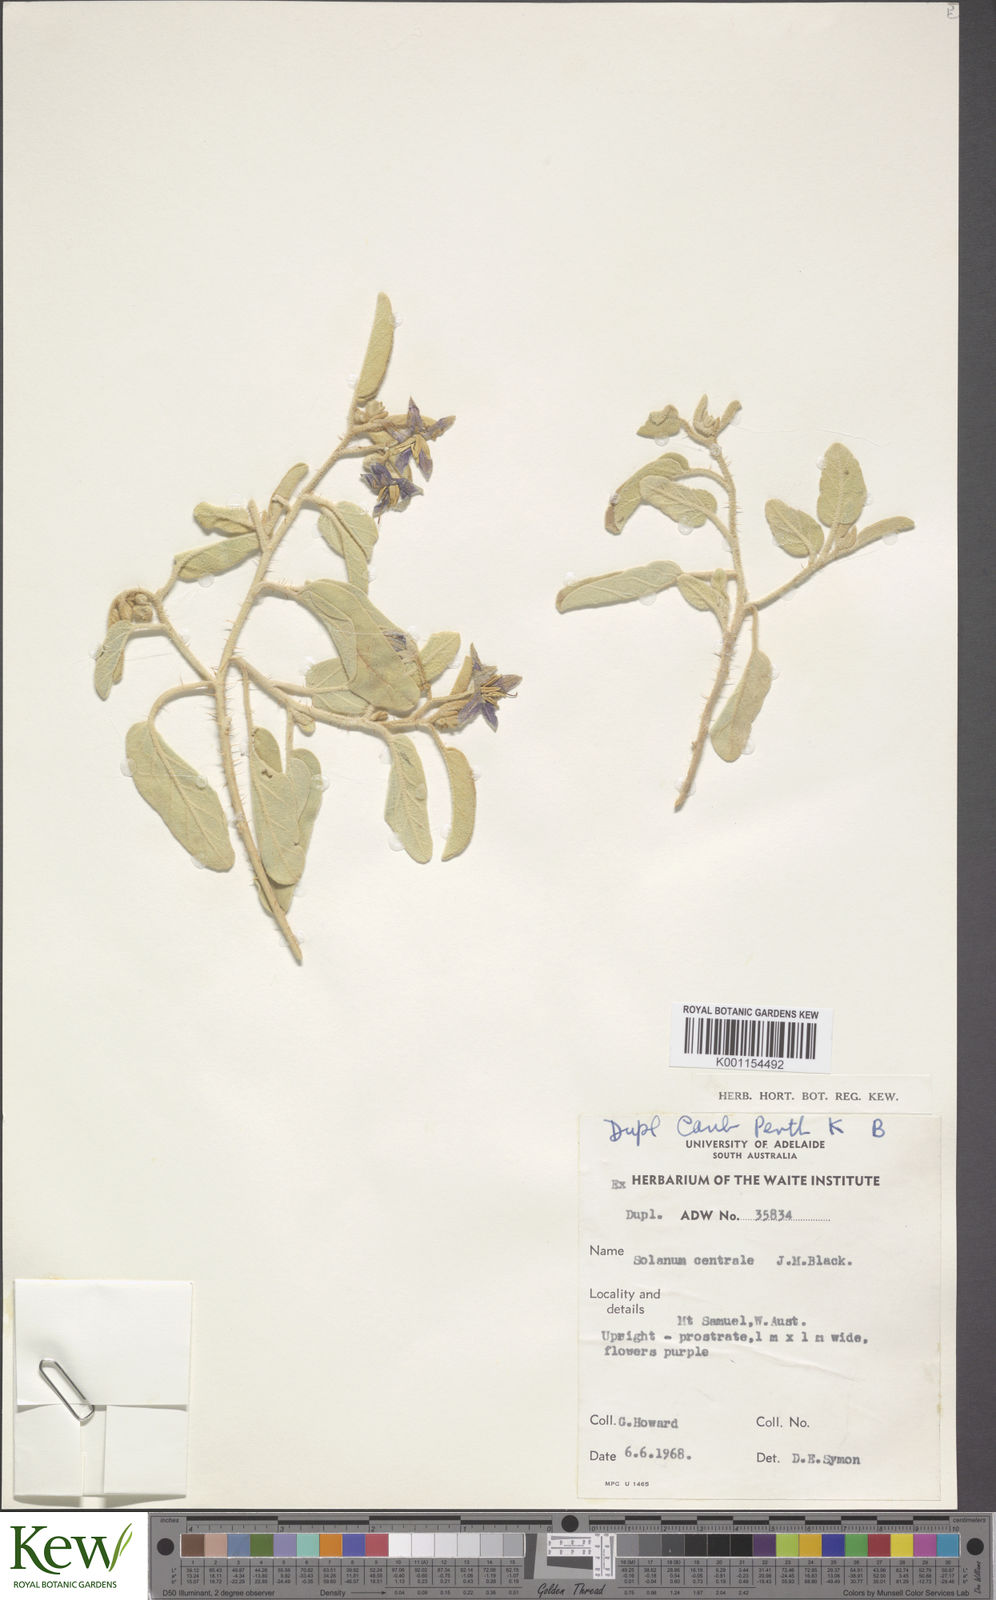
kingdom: Plantae
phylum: Tracheophyta
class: Magnoliopsida
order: Solanales
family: Solanaceae
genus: Solanum
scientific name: Solanum centrale
